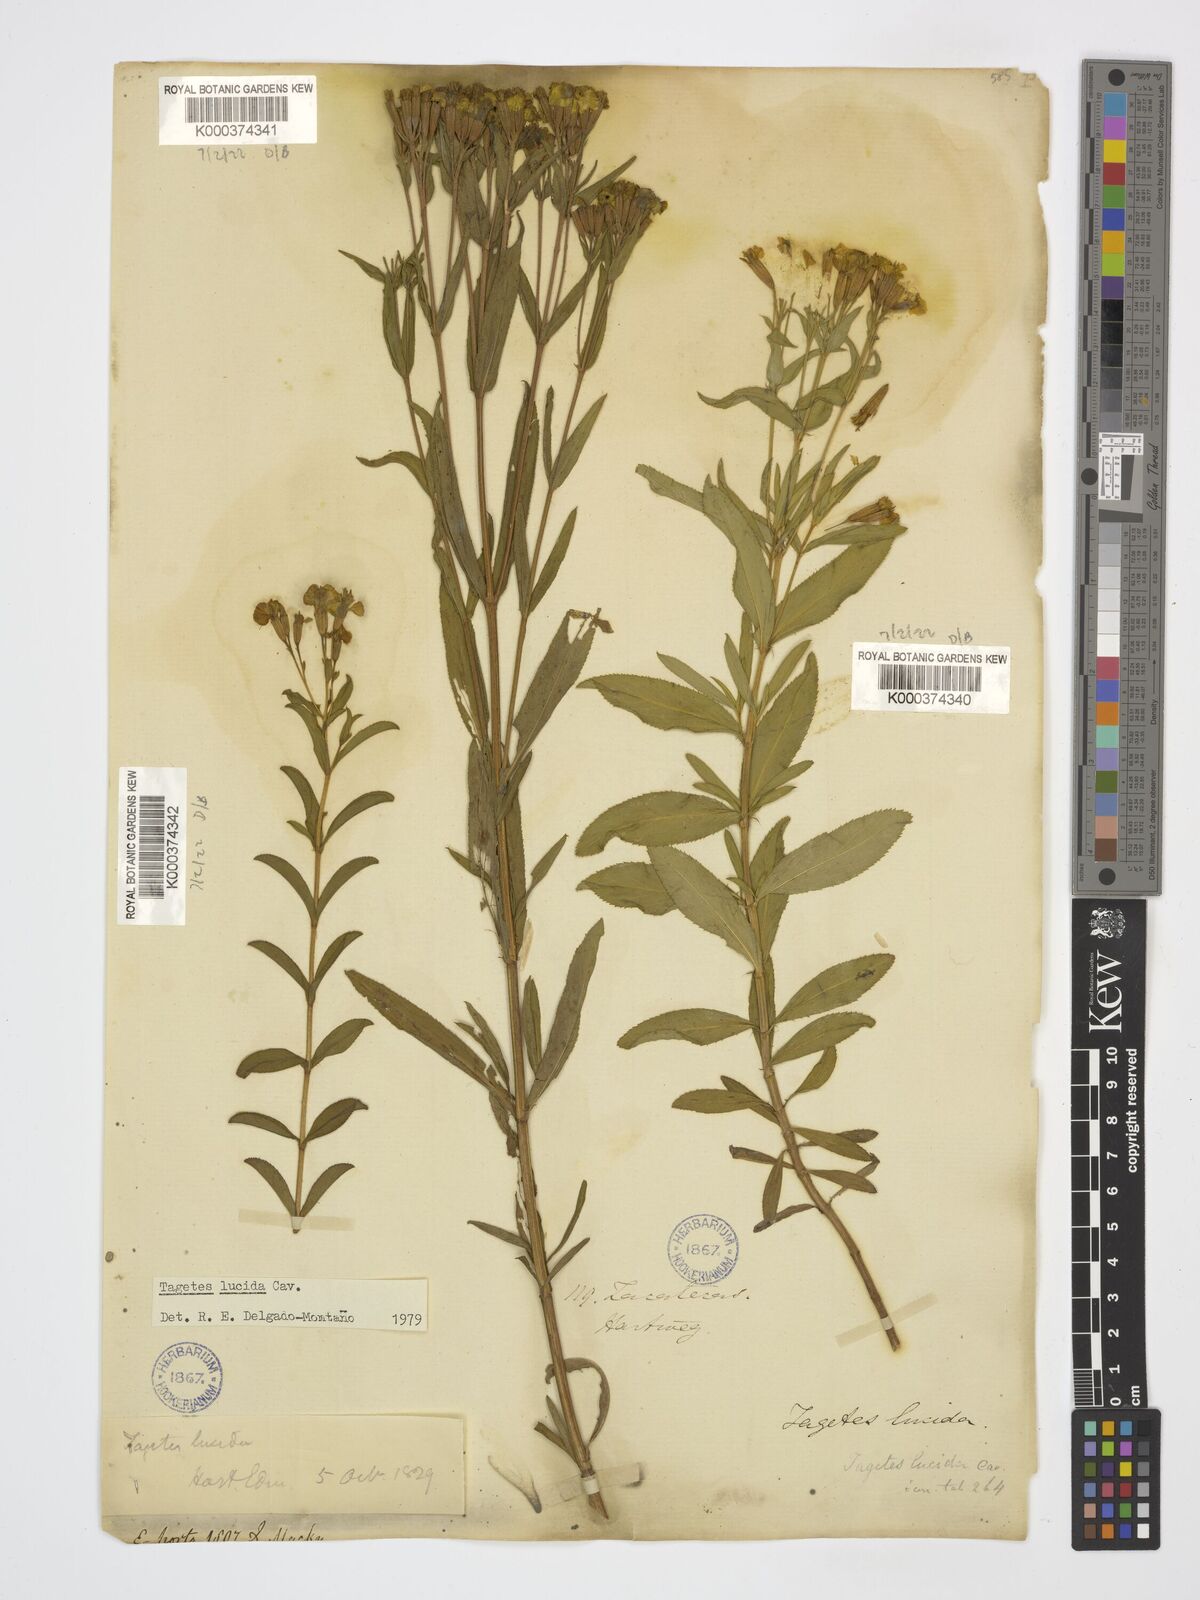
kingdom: Plantae
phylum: Tracheophyta
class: Magnoliopsida
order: Asterales
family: Asteraceae
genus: Tagetes
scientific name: Tagetes lucida
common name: Sweetscented marigold
